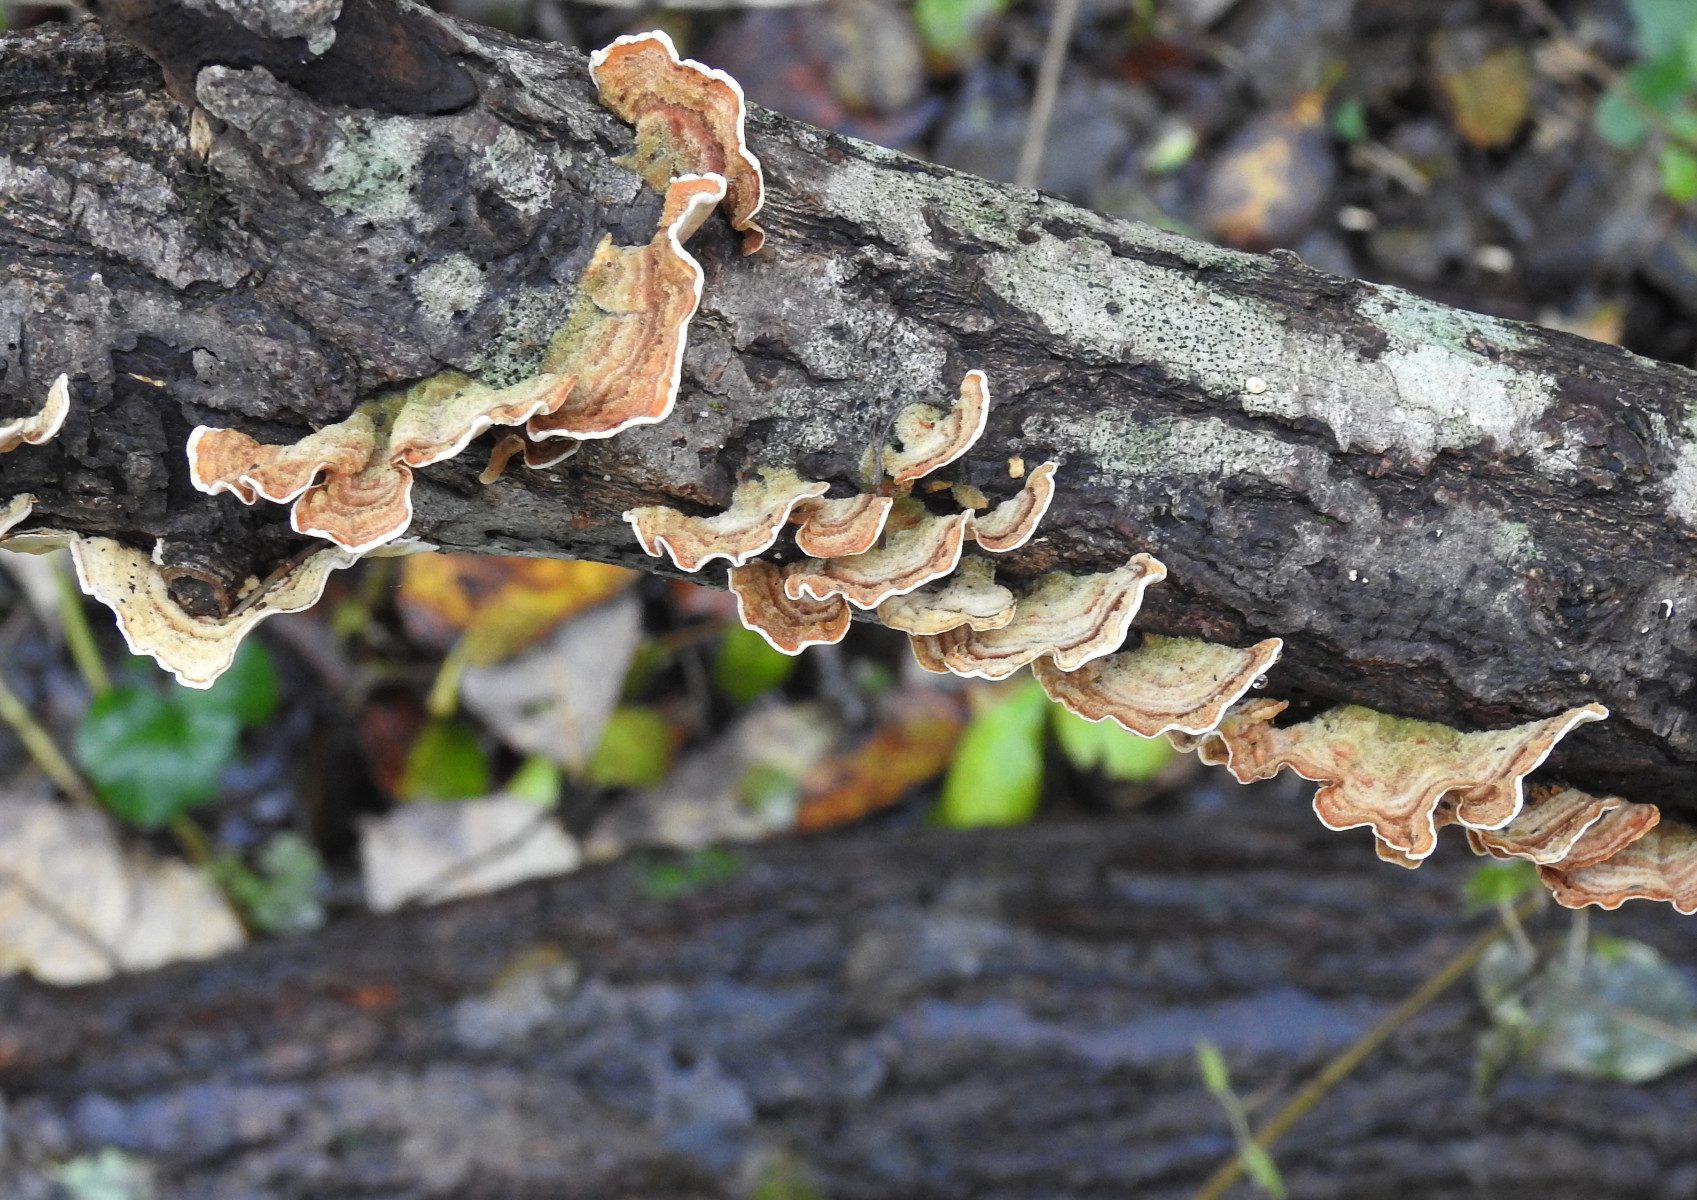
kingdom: Fungi
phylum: Basidiomycota
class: Agaricomycetes
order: Russulales
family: Stereaceae
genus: Stereum
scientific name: Stereum subtomentosum
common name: smuk lædersvamp
